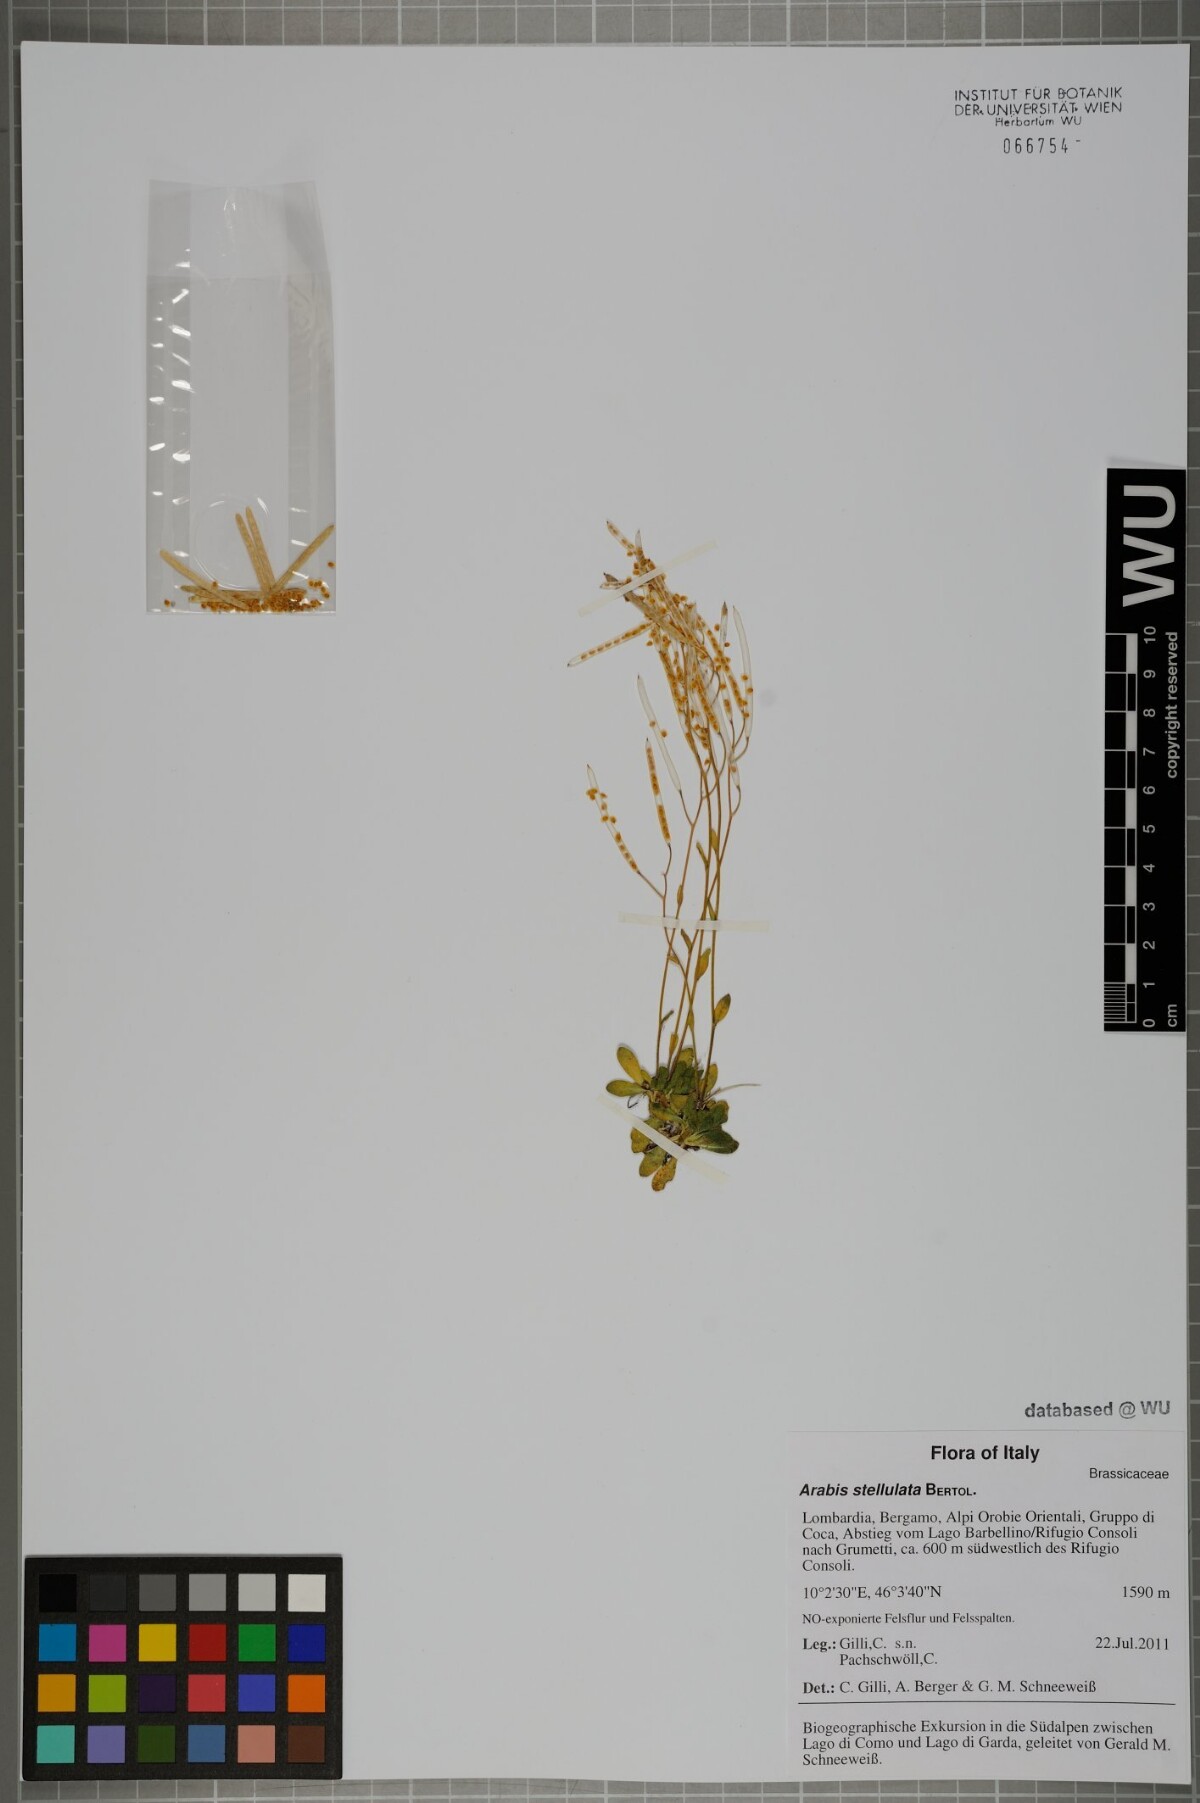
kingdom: Plantae
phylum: Tracheophyta
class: Magnoliopsida
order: Brassicales
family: Brassicaceae
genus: Arabis
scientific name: Arabis stellulata
